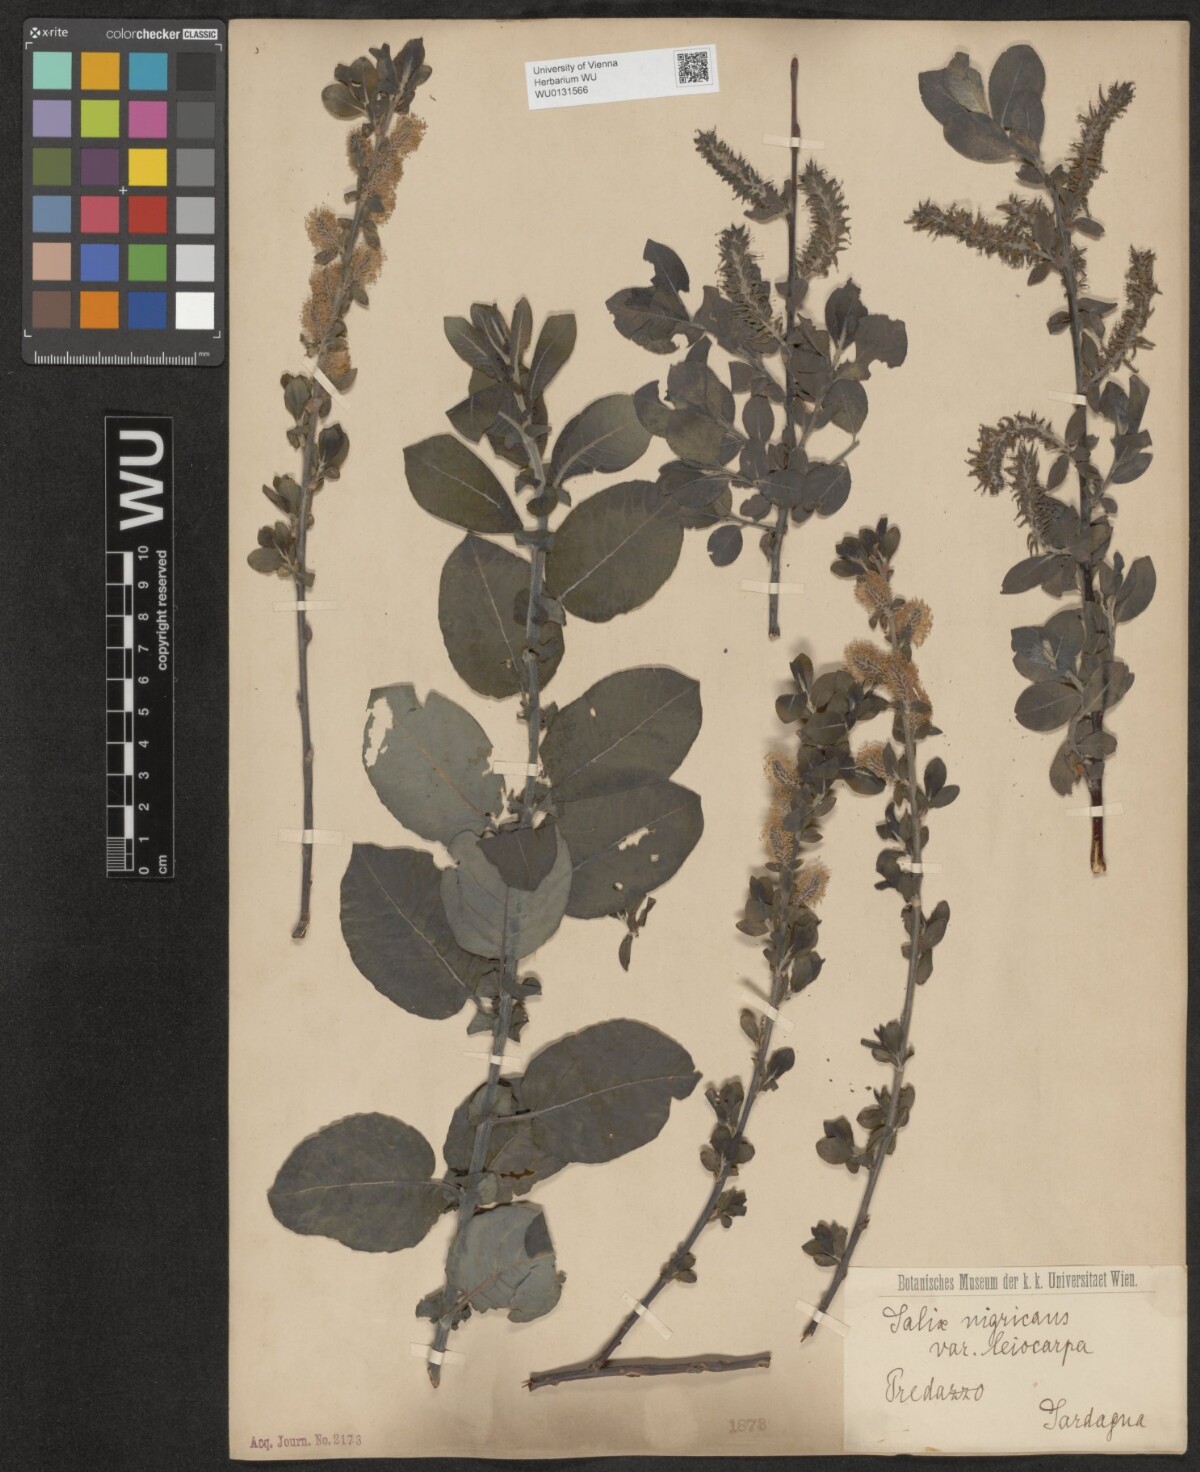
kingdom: Plantae
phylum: Tracheophyta
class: Magnoliopsida
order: Malpighiales
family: Salicaceae
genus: Salix
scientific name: Salix myrsinifolia
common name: Dark-leaved willow
